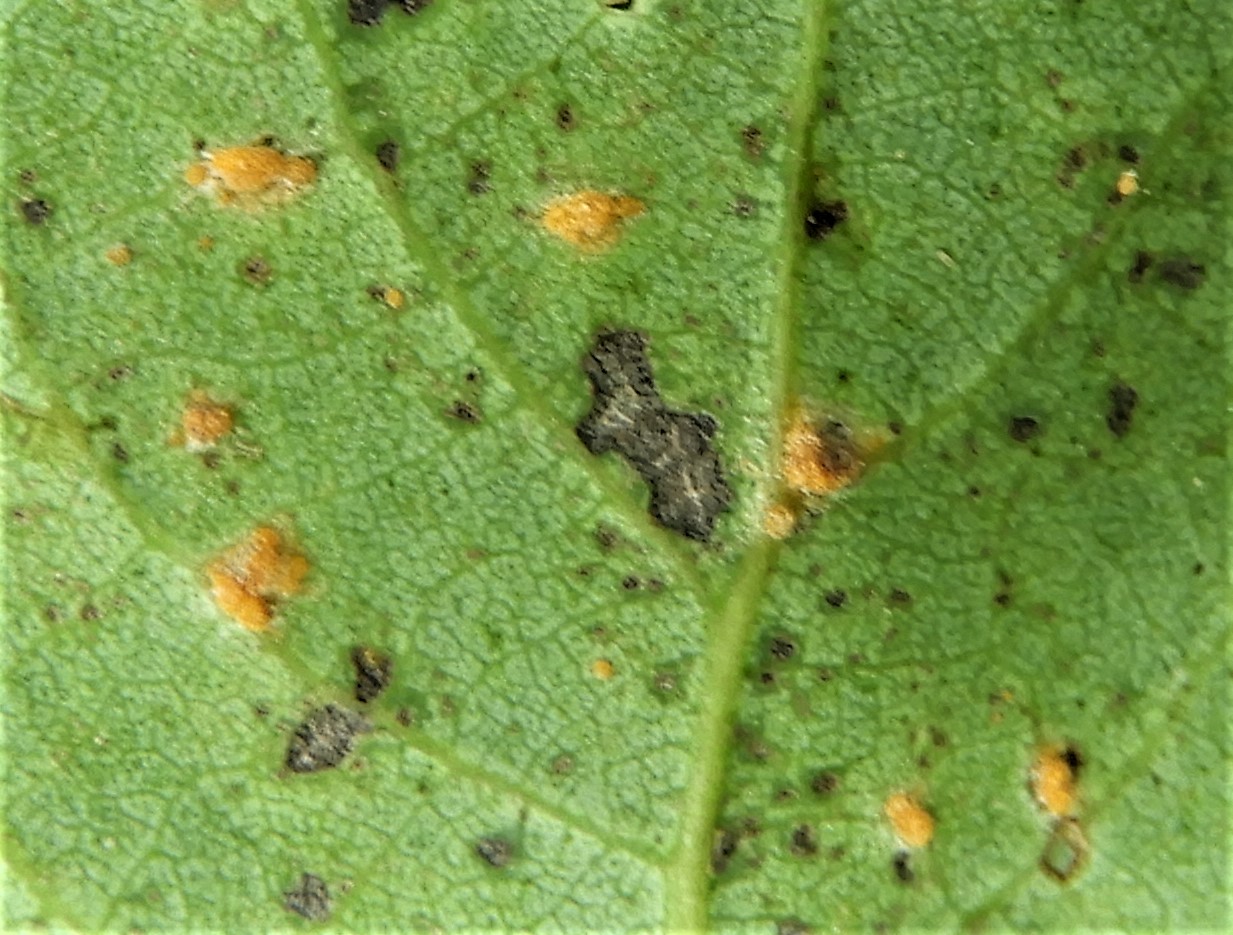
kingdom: Fungi
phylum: Basidiomycota
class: Pucciniomycetes
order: Pucciniales
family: Melampsoraceae
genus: Melampsora
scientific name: Melampsora
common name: skorperust
